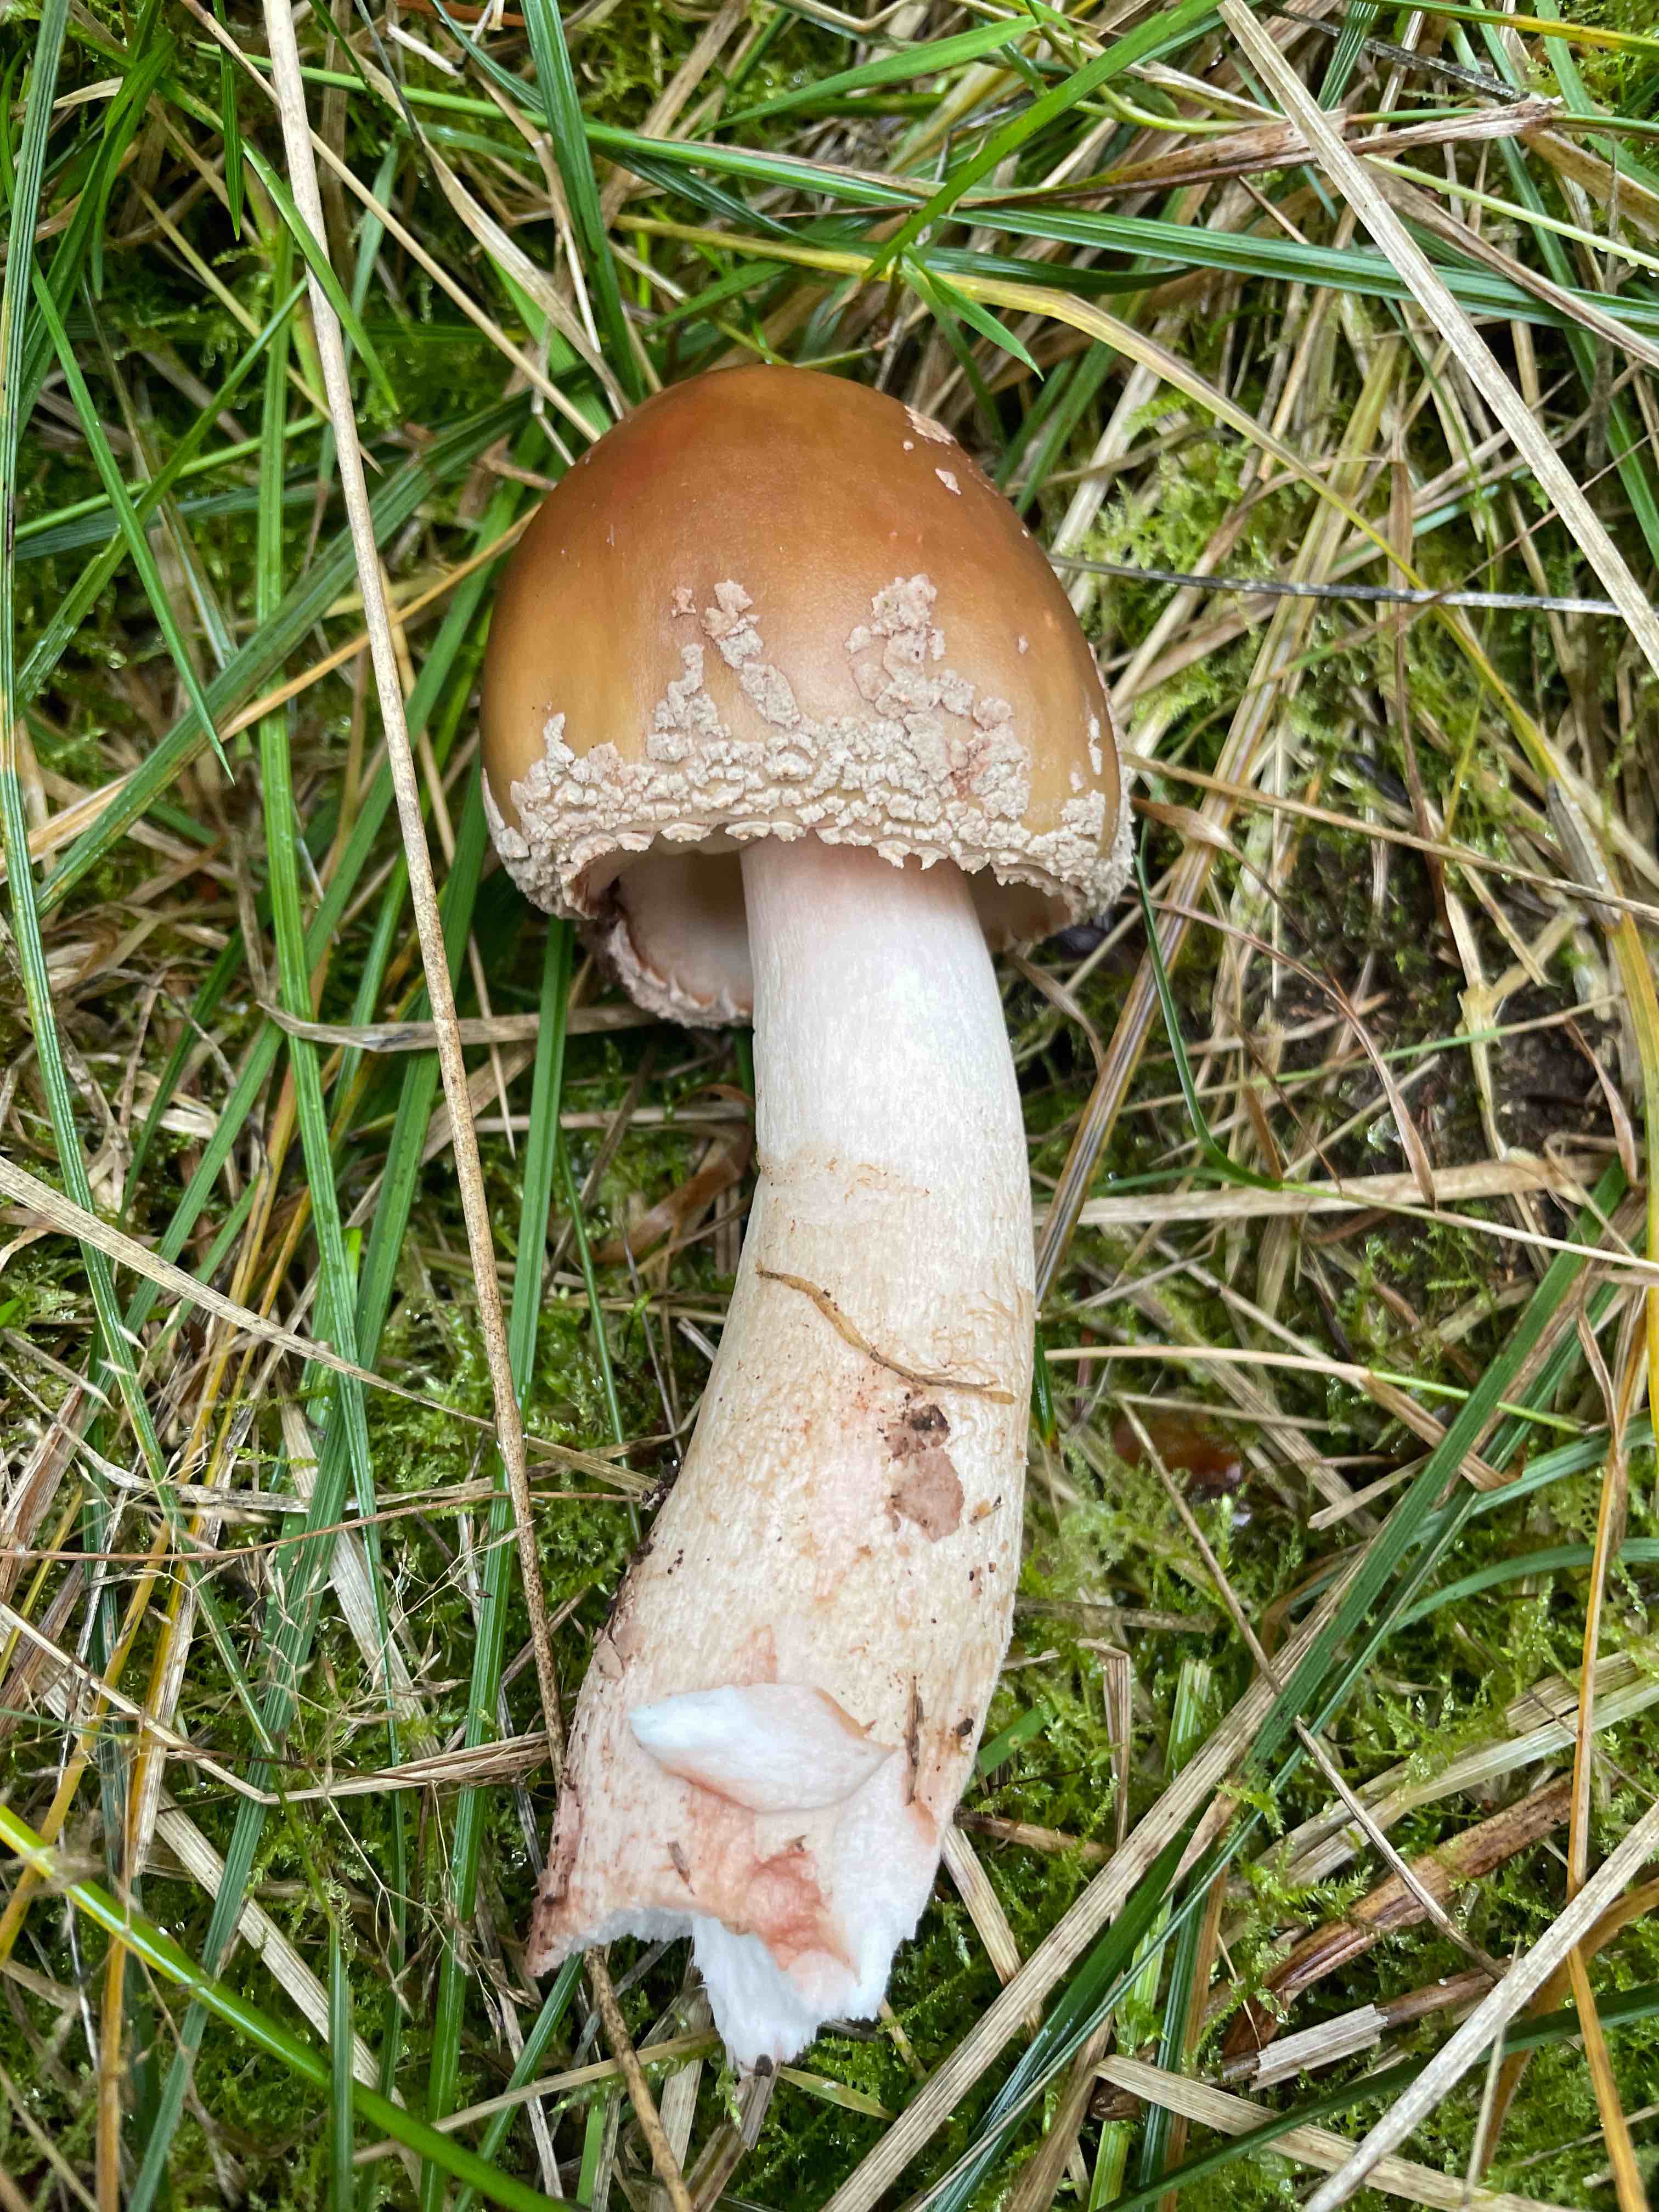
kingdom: Fungi
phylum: Basidiomycota
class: Agaricomycetes
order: Agaricales
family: Amanitaceae
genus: Amanita
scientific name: Amanita rubescens
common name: rødmende fluesvamp
